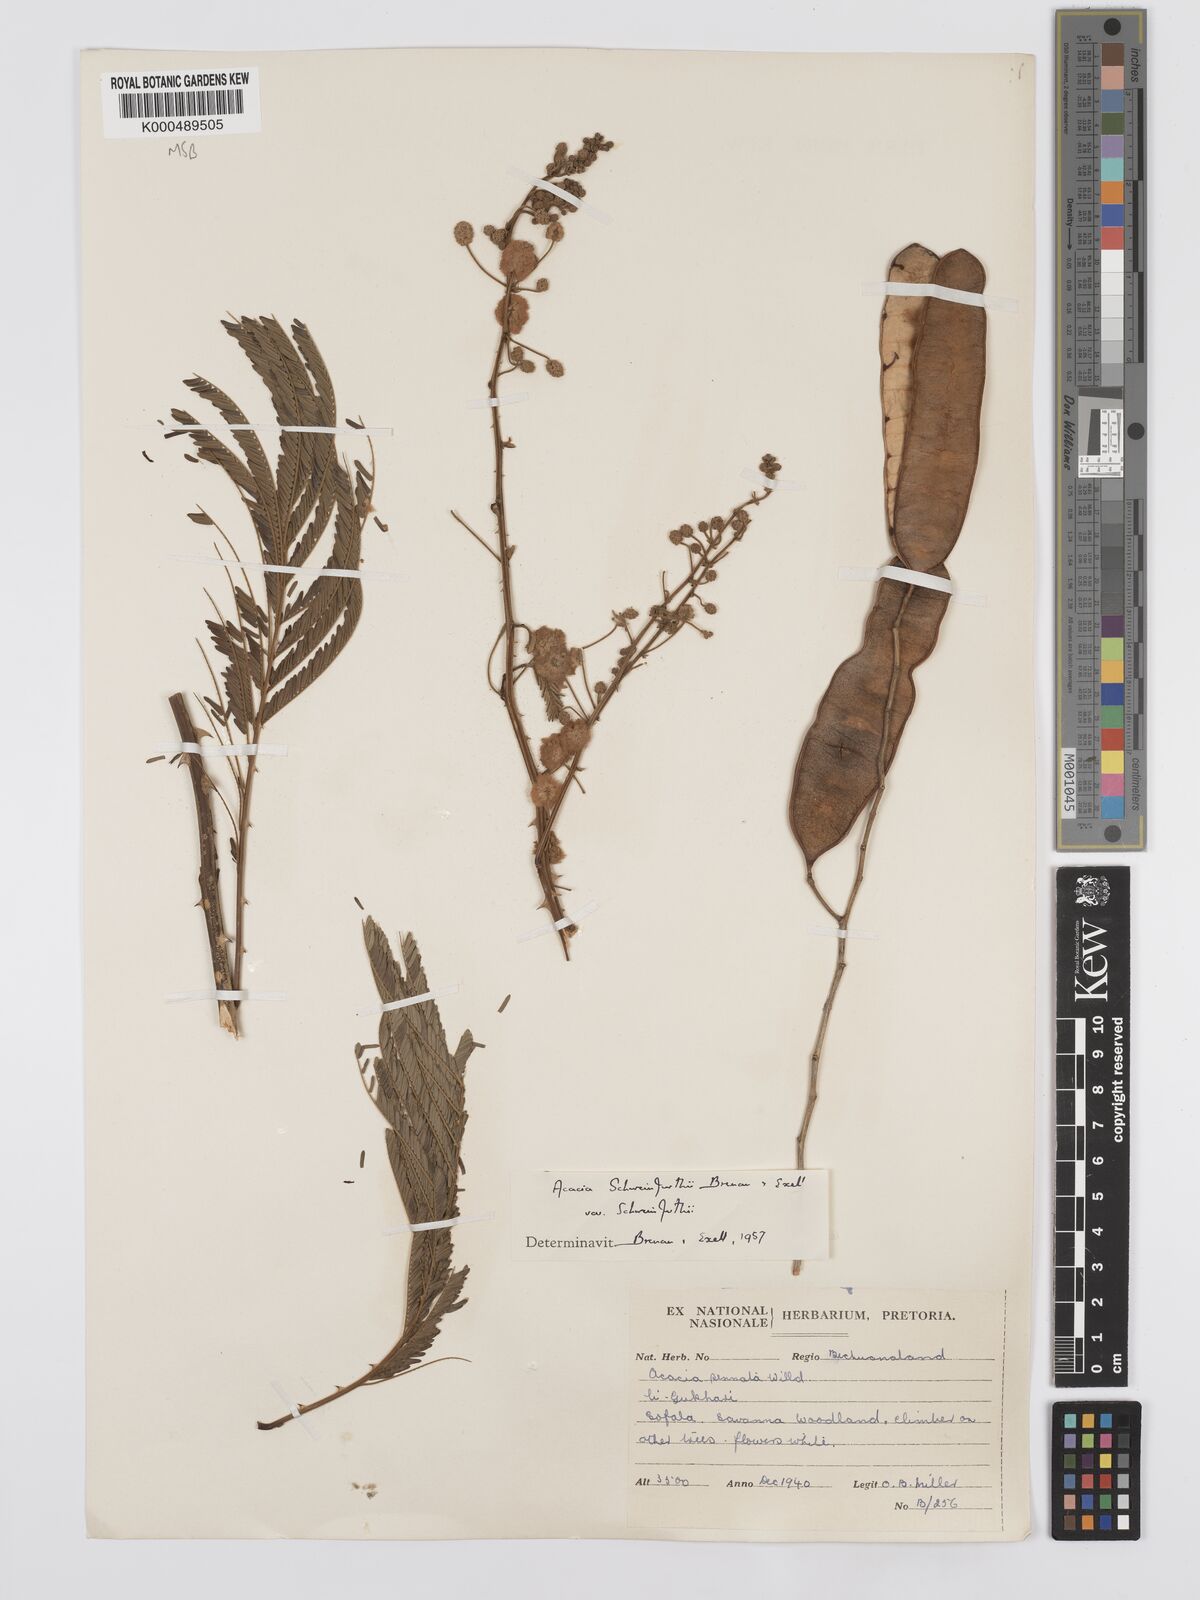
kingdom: Plantae
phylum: Tracheophyta
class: Magnoliopsida
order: Fabales
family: Fabaceae
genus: Senegalia
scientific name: Senegalia schweinfurthii
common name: River climbing acacia
